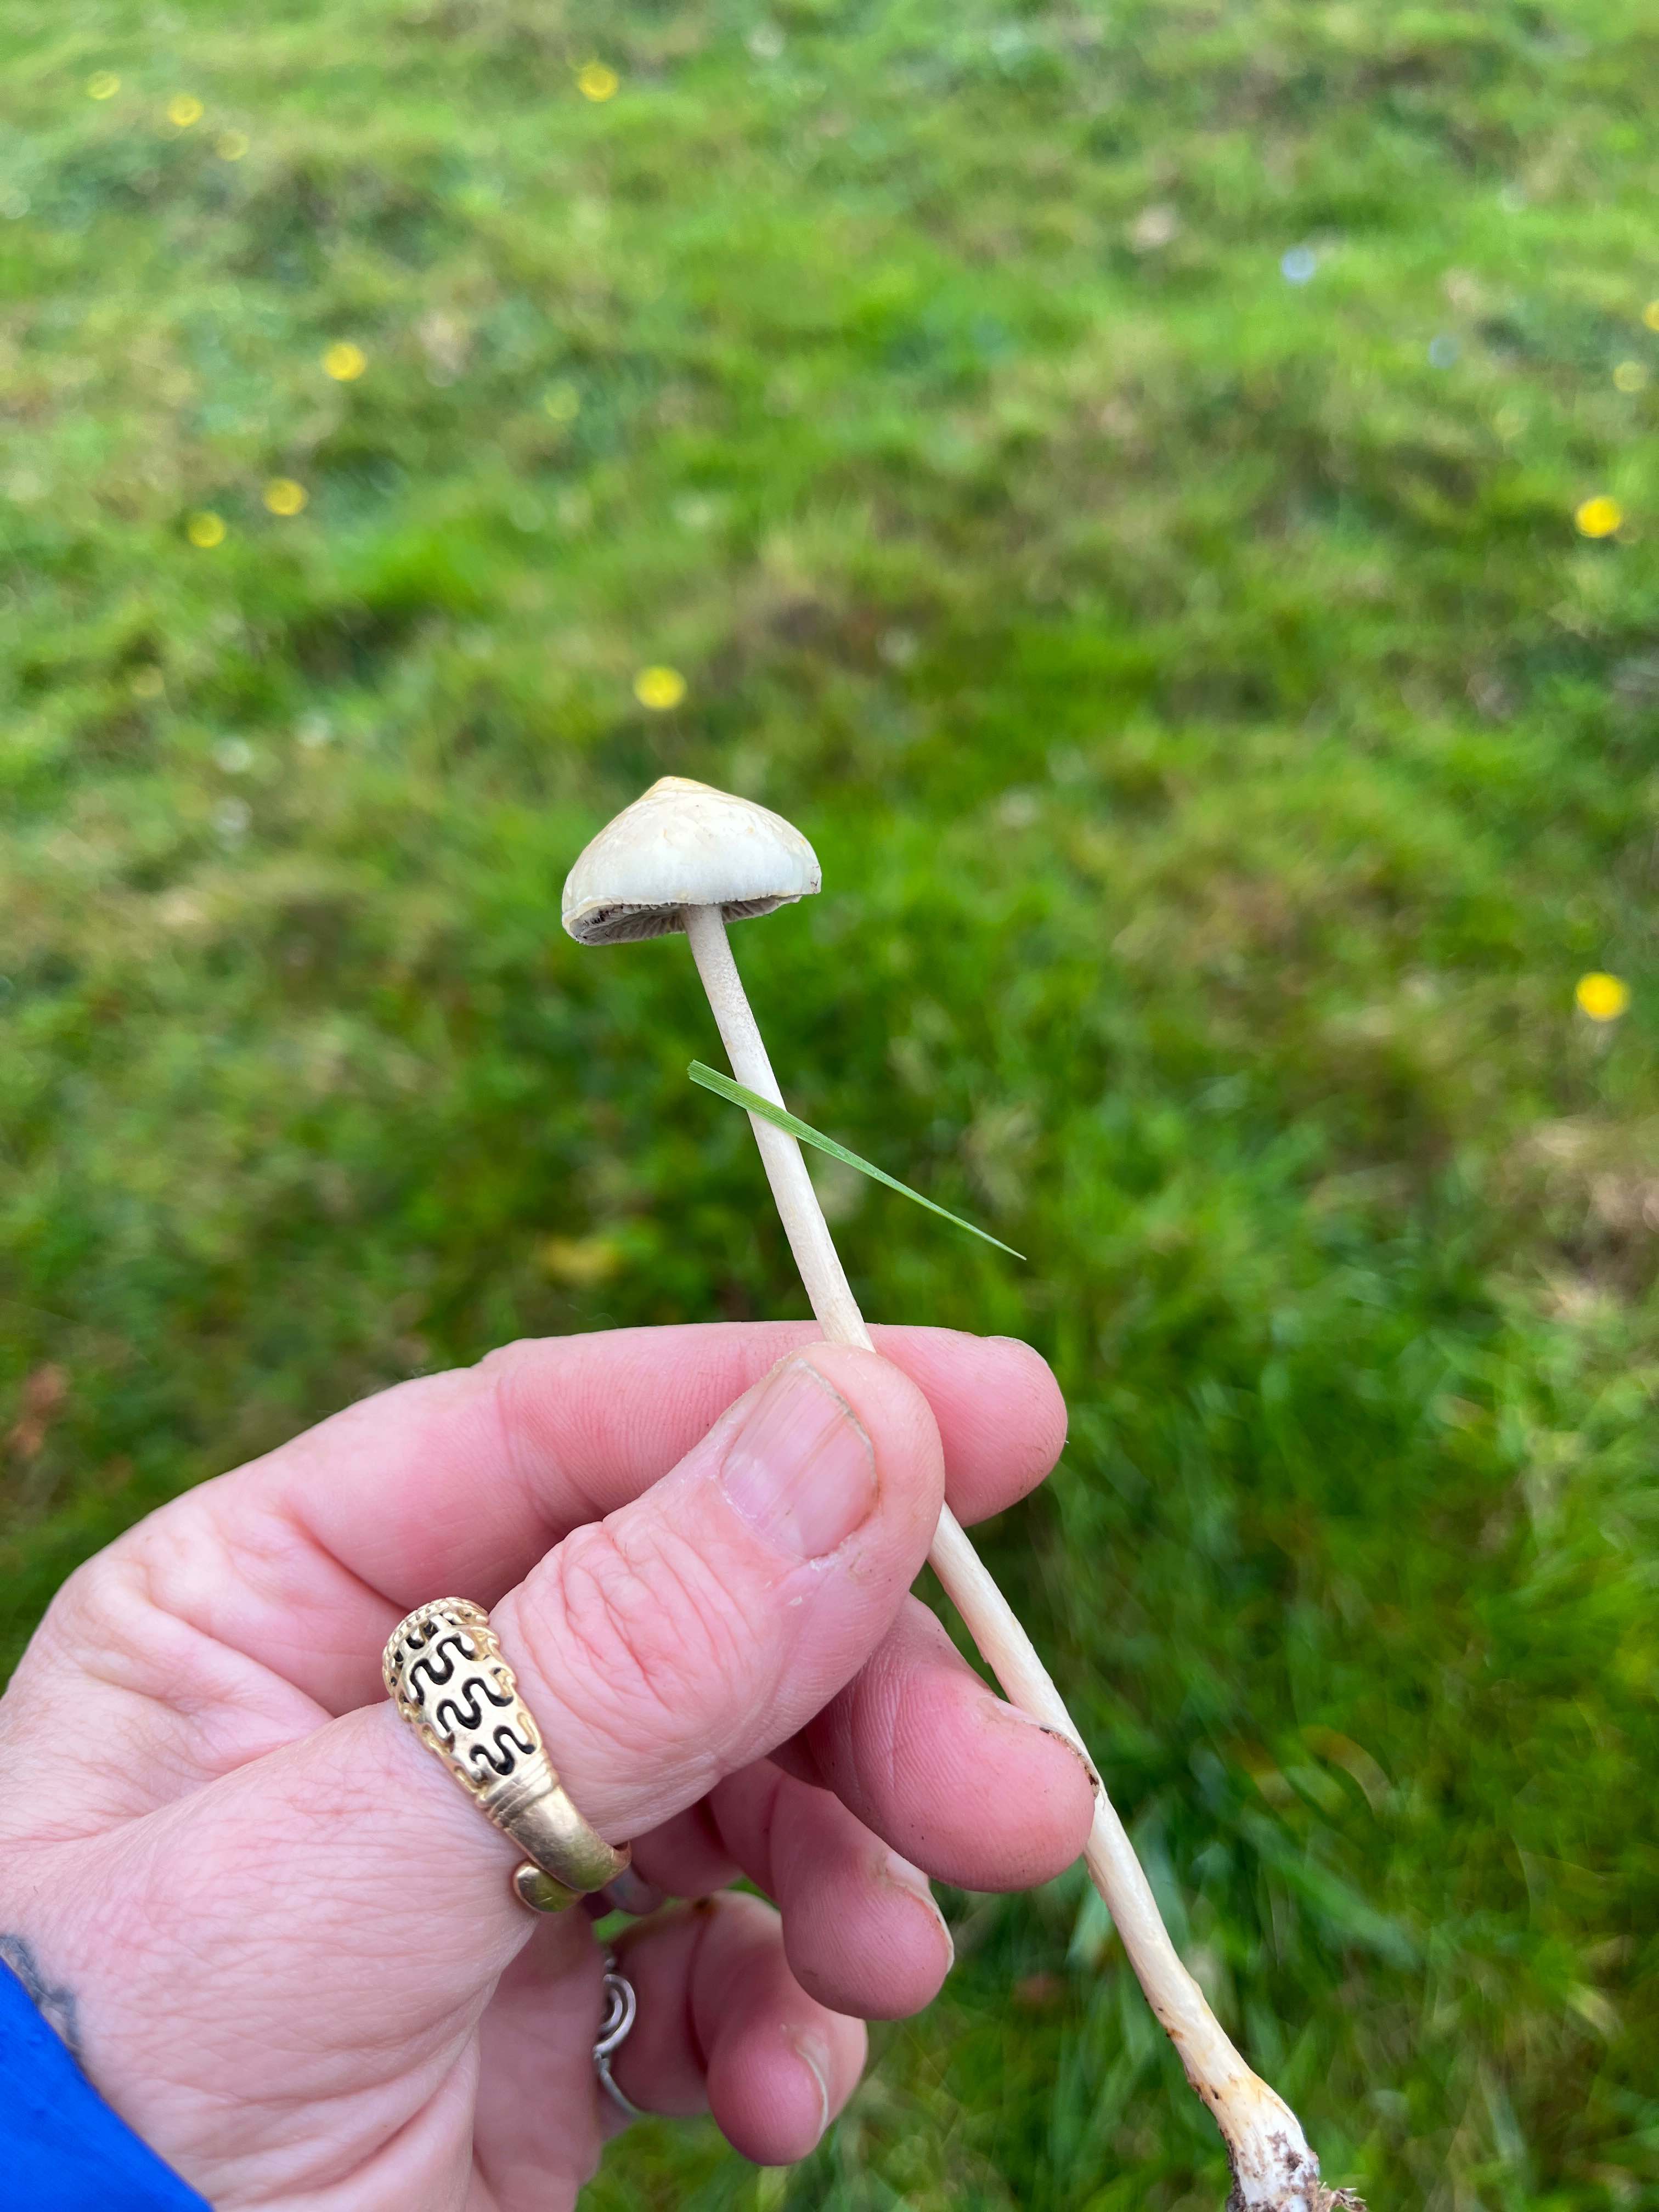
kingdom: Fungi
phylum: Basidiomycota
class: Agaricomycetes
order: Agaricales
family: Strophariaceae
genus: Protostropharia
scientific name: Protostropharia
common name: bredblad
